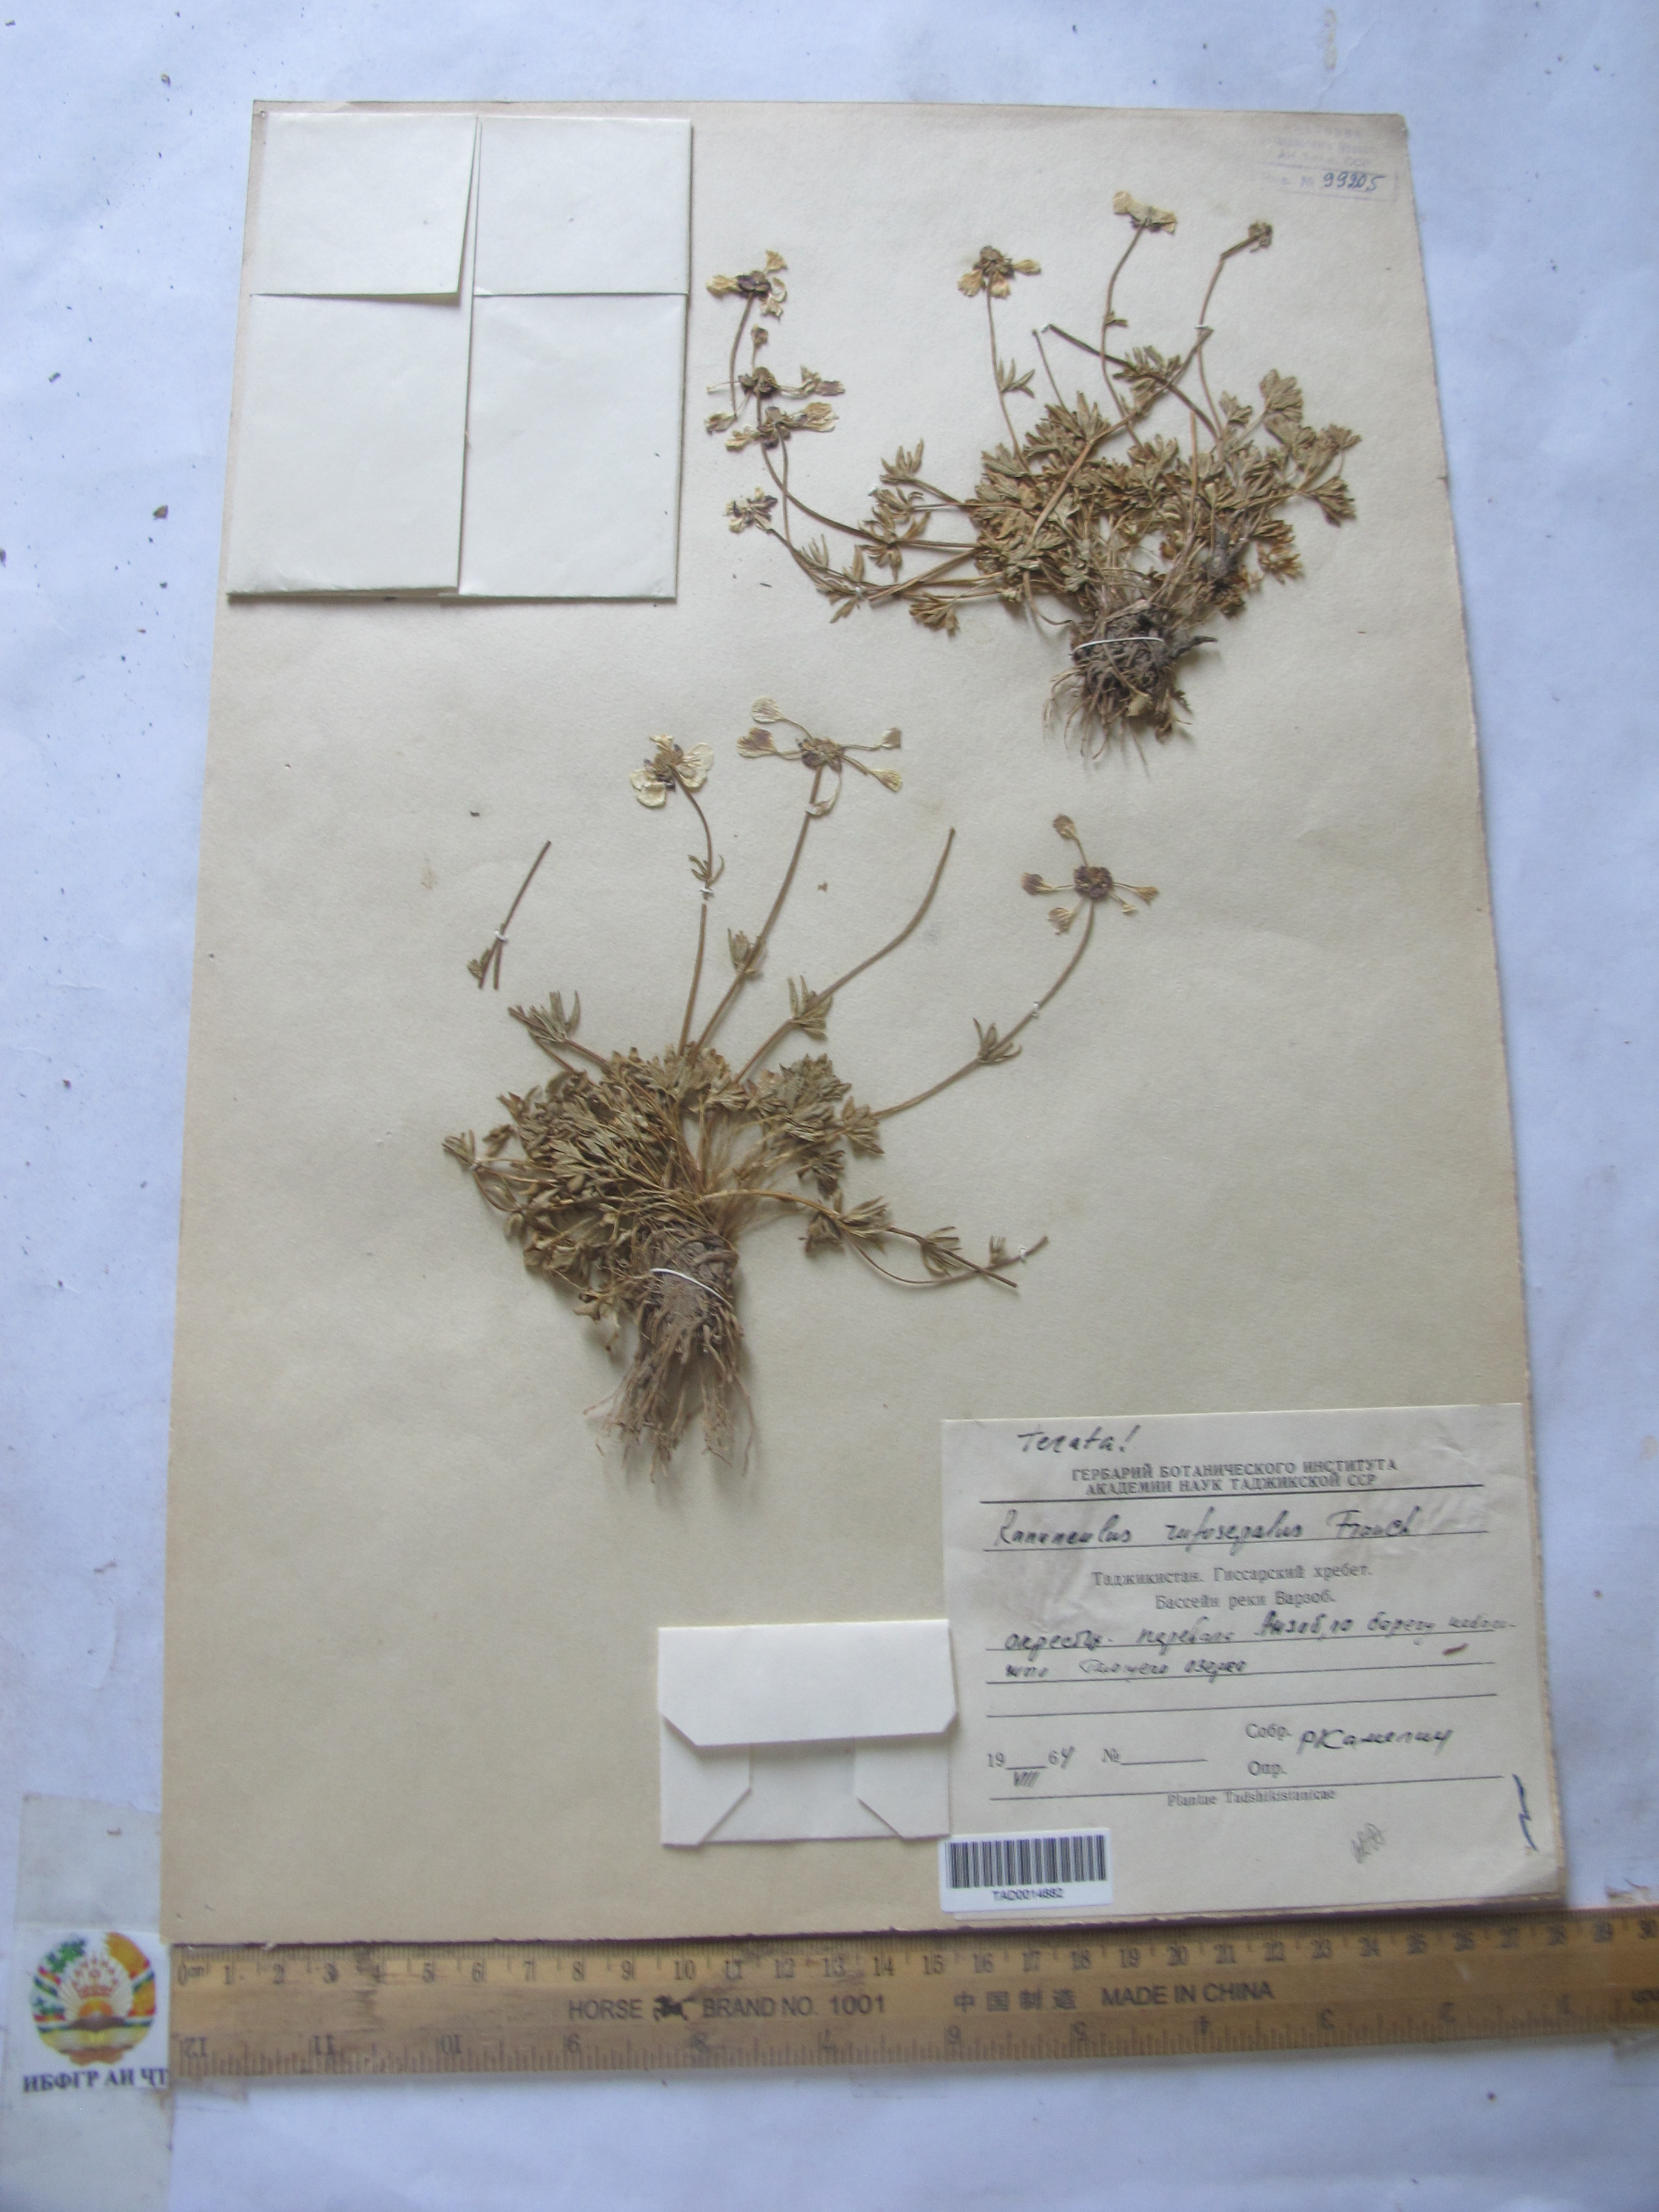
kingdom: Plantae
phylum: Tracheophyta
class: Magnoliopsida
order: Ranunculales
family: Ranunculaceae
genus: Ranunculus
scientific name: Ranunculus rufosepalus
